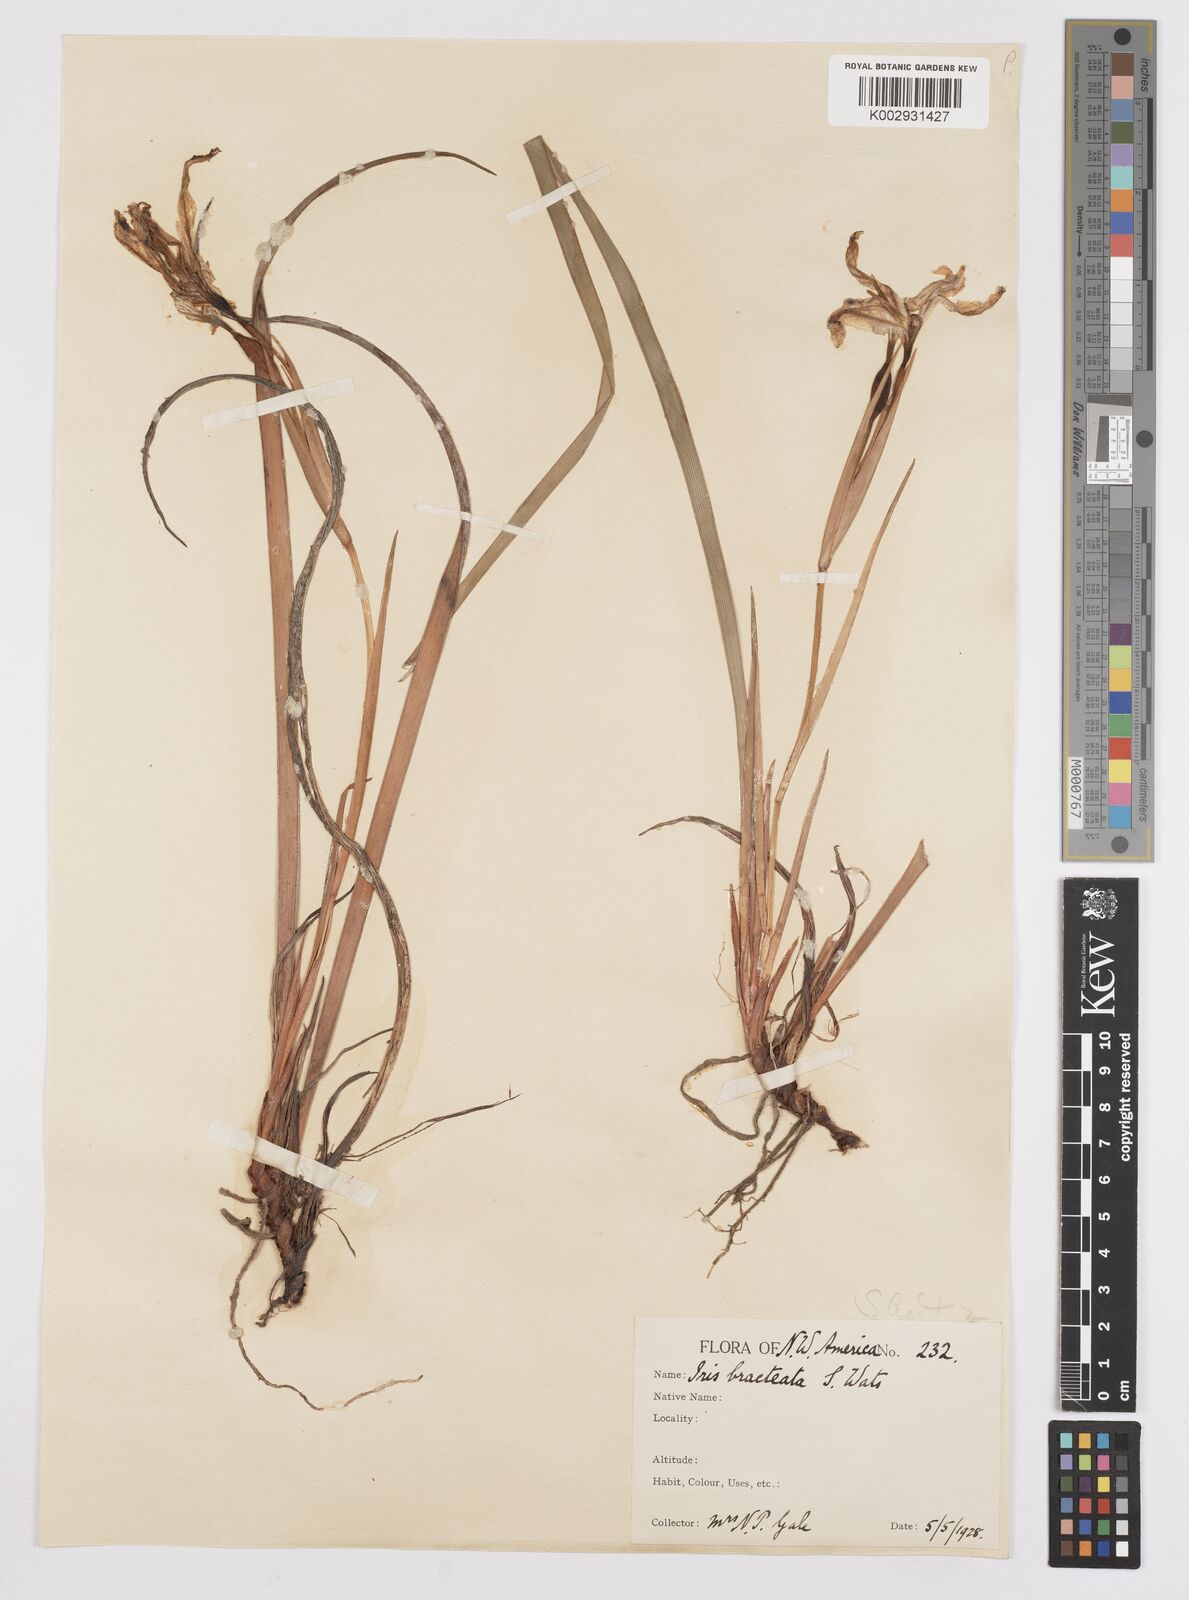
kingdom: Plantae
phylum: Tracheophyta
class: Liliopsida
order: Asparagales
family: Iridaceae
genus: Iris
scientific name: Iris bracteata
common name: Siskiyou iris
